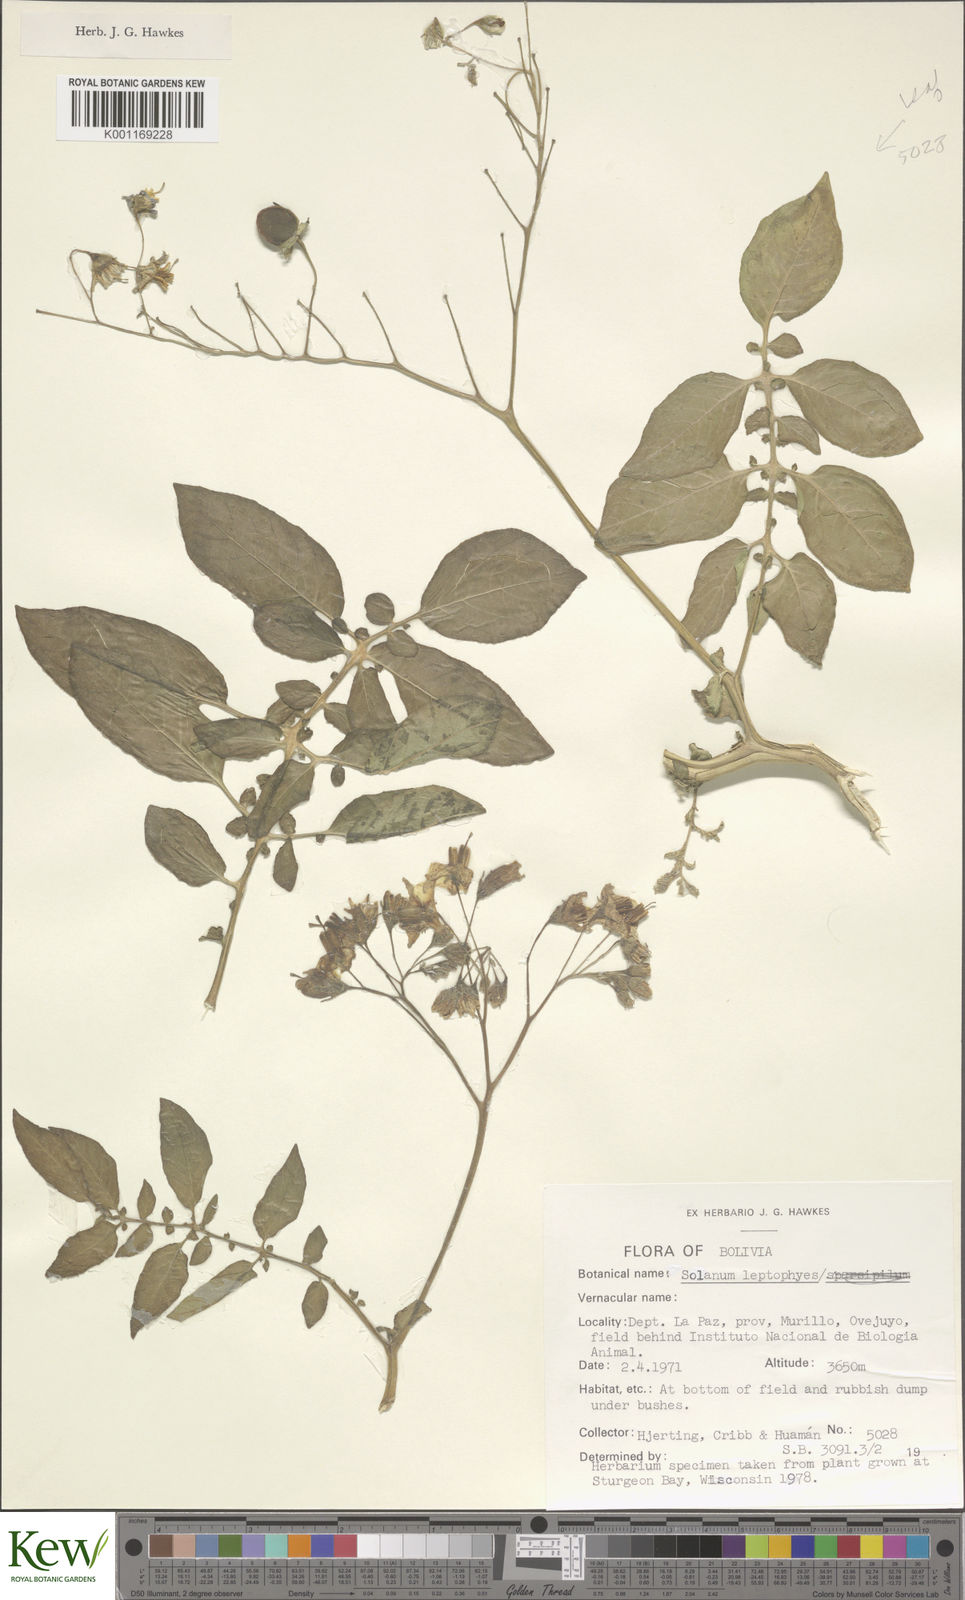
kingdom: Plantae
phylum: Tracheophyta
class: Magnoliopsida
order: Solanales
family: Solanaceae
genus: Solanum
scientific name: Solanum brevicaule
